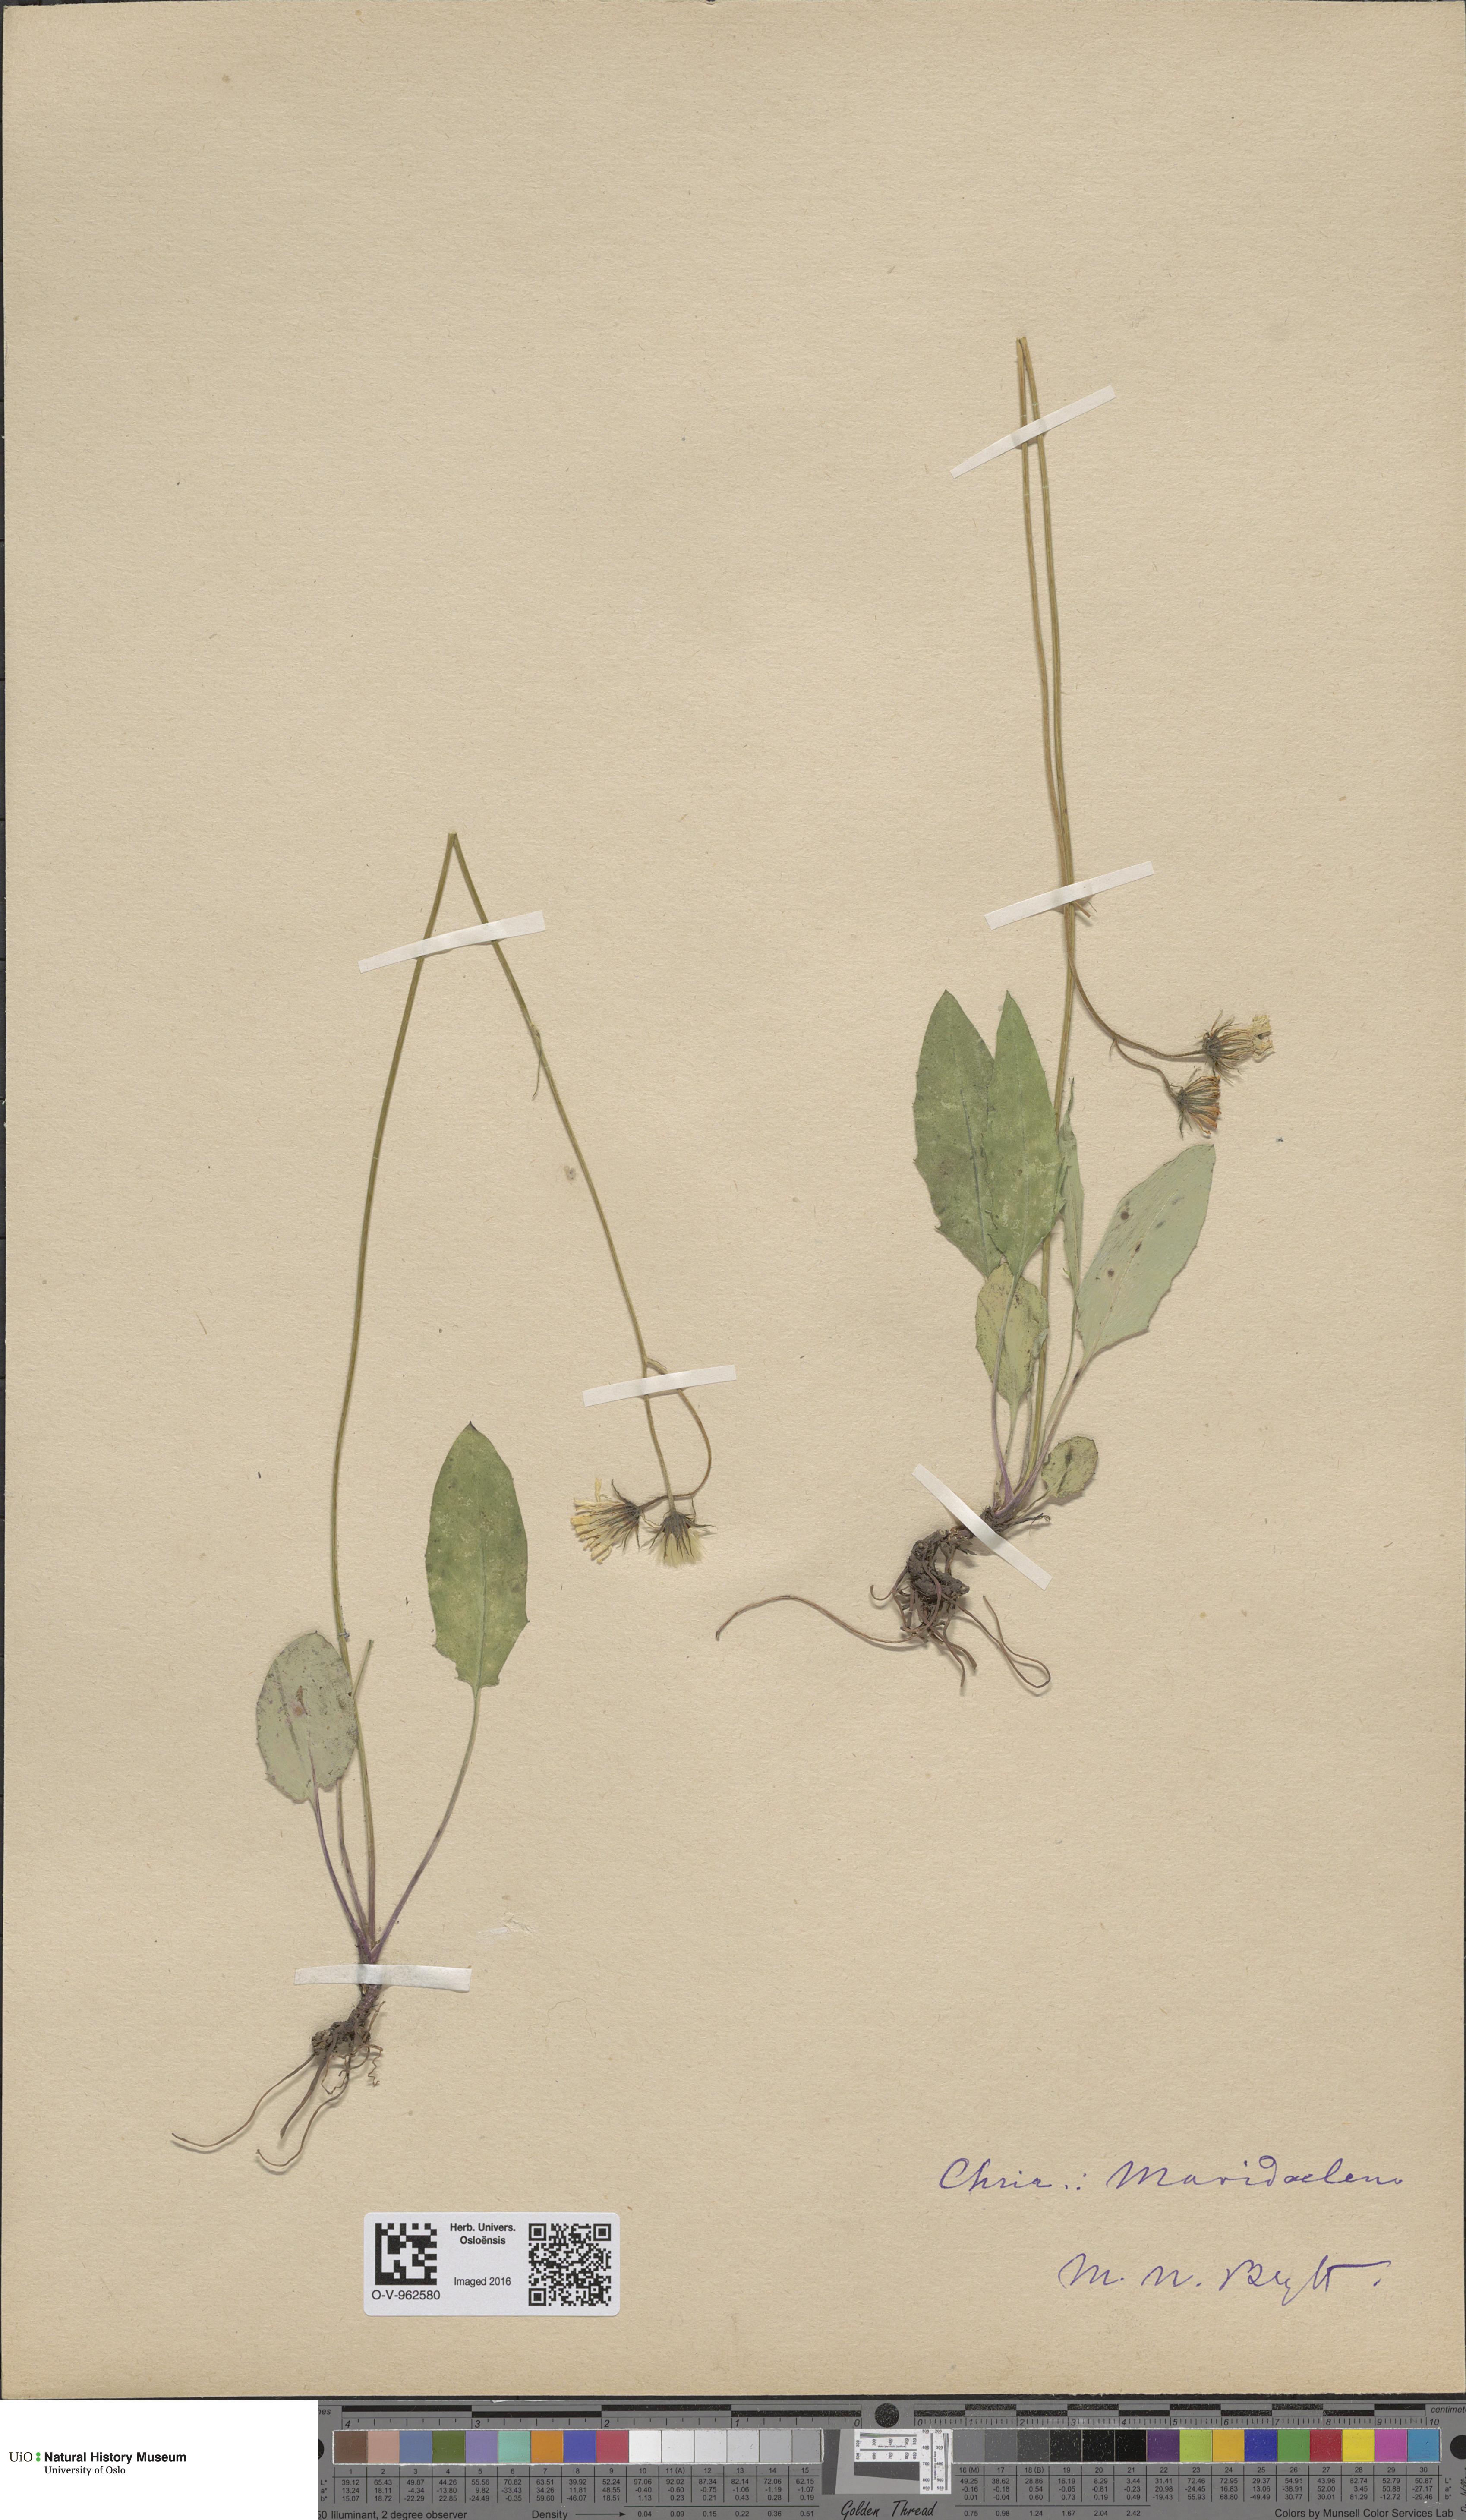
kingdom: Plantae
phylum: Tracheophyta
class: Magnoliopsida
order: Asterales
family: Asteraceae
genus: Hieracium
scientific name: Hieracium
